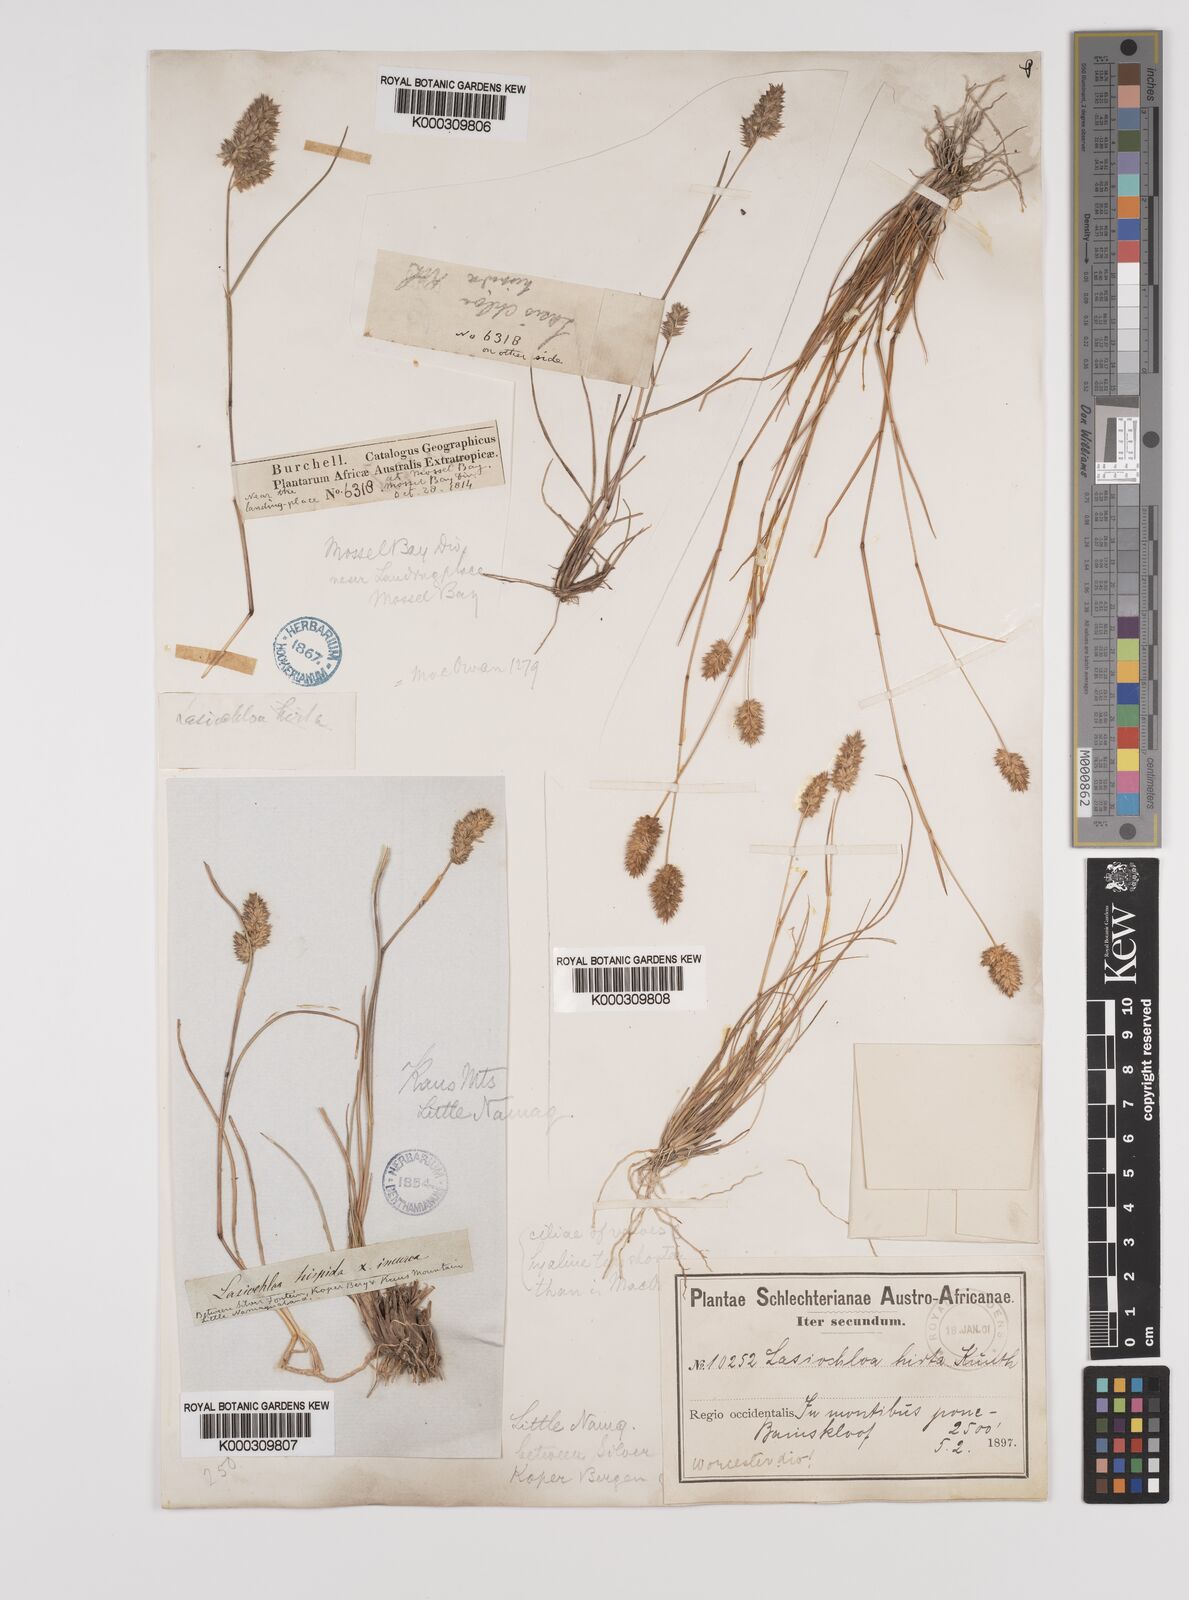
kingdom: Plantae
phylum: Tracheophyta
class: Liliopsida
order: Poales
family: Poaceae
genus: Tribolium
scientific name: Tribolium hispidum
